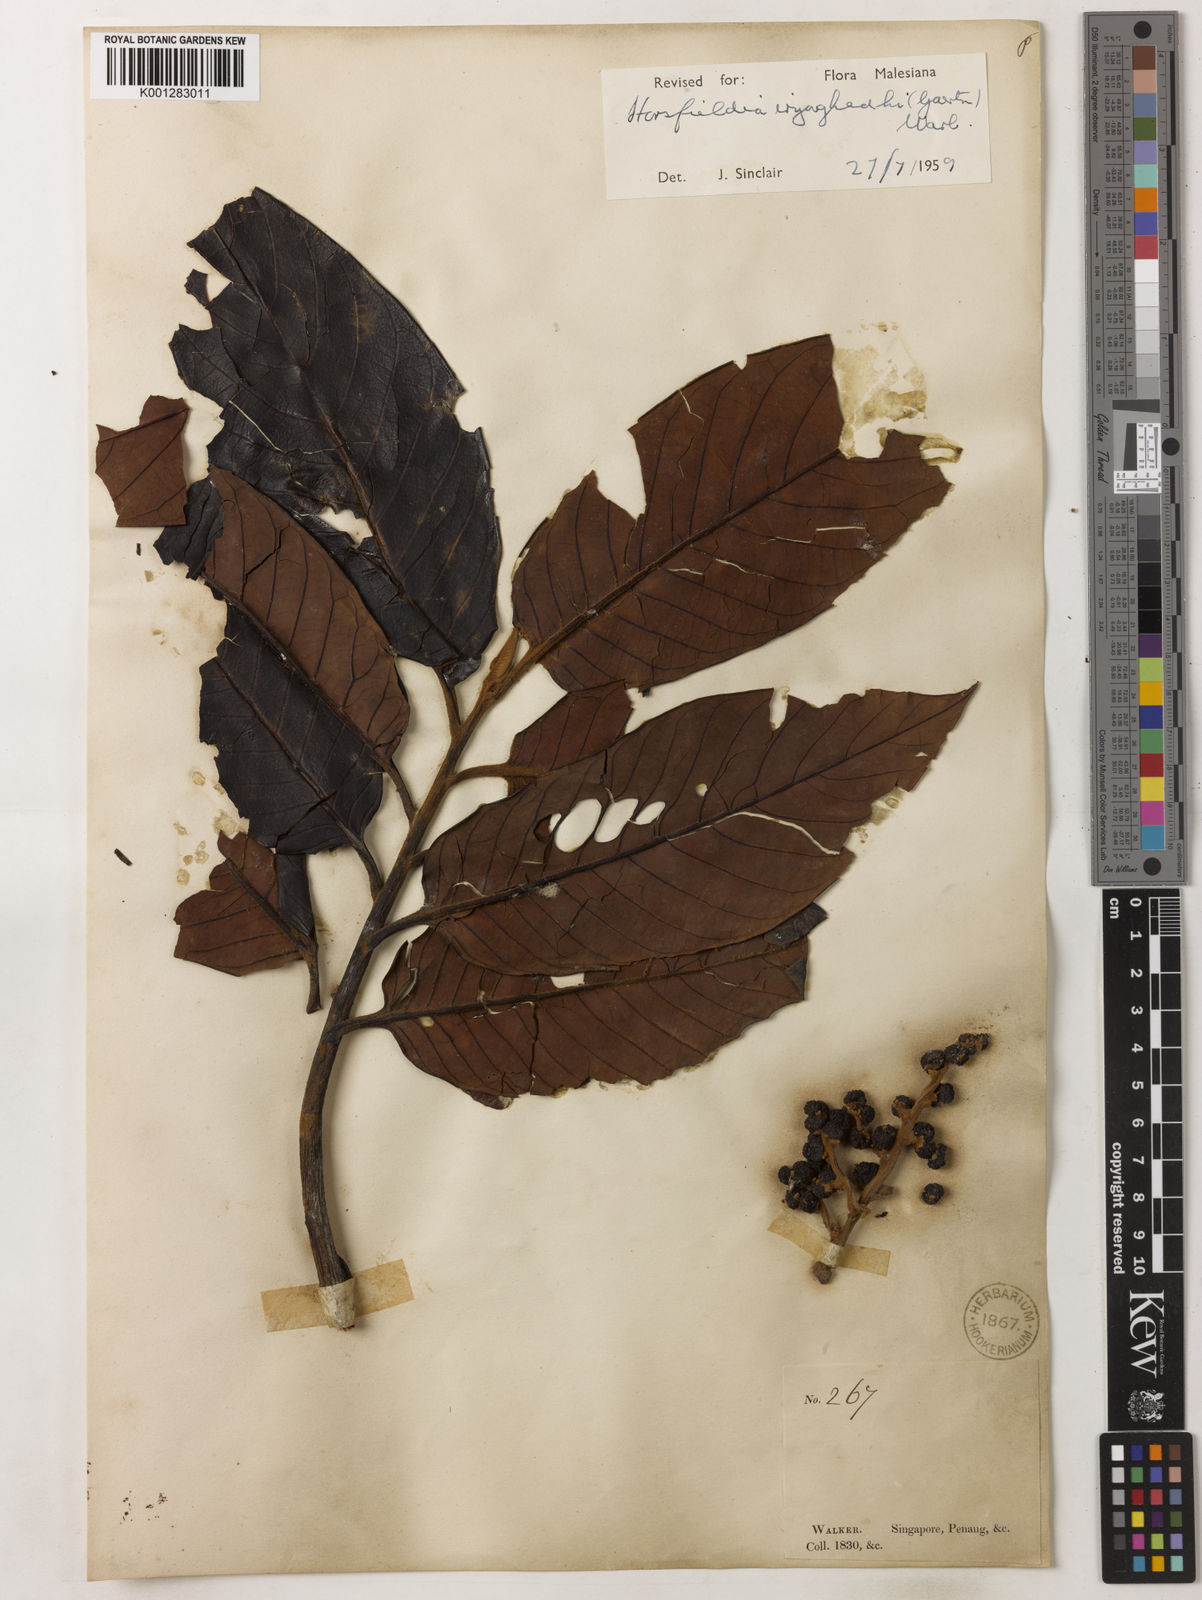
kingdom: Plantae
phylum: Tracheophyta
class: Magnoliopsida
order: Magnoliales
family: Myristicaceae
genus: Horsfieldia
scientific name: Horsfieldia iryaghedhi
